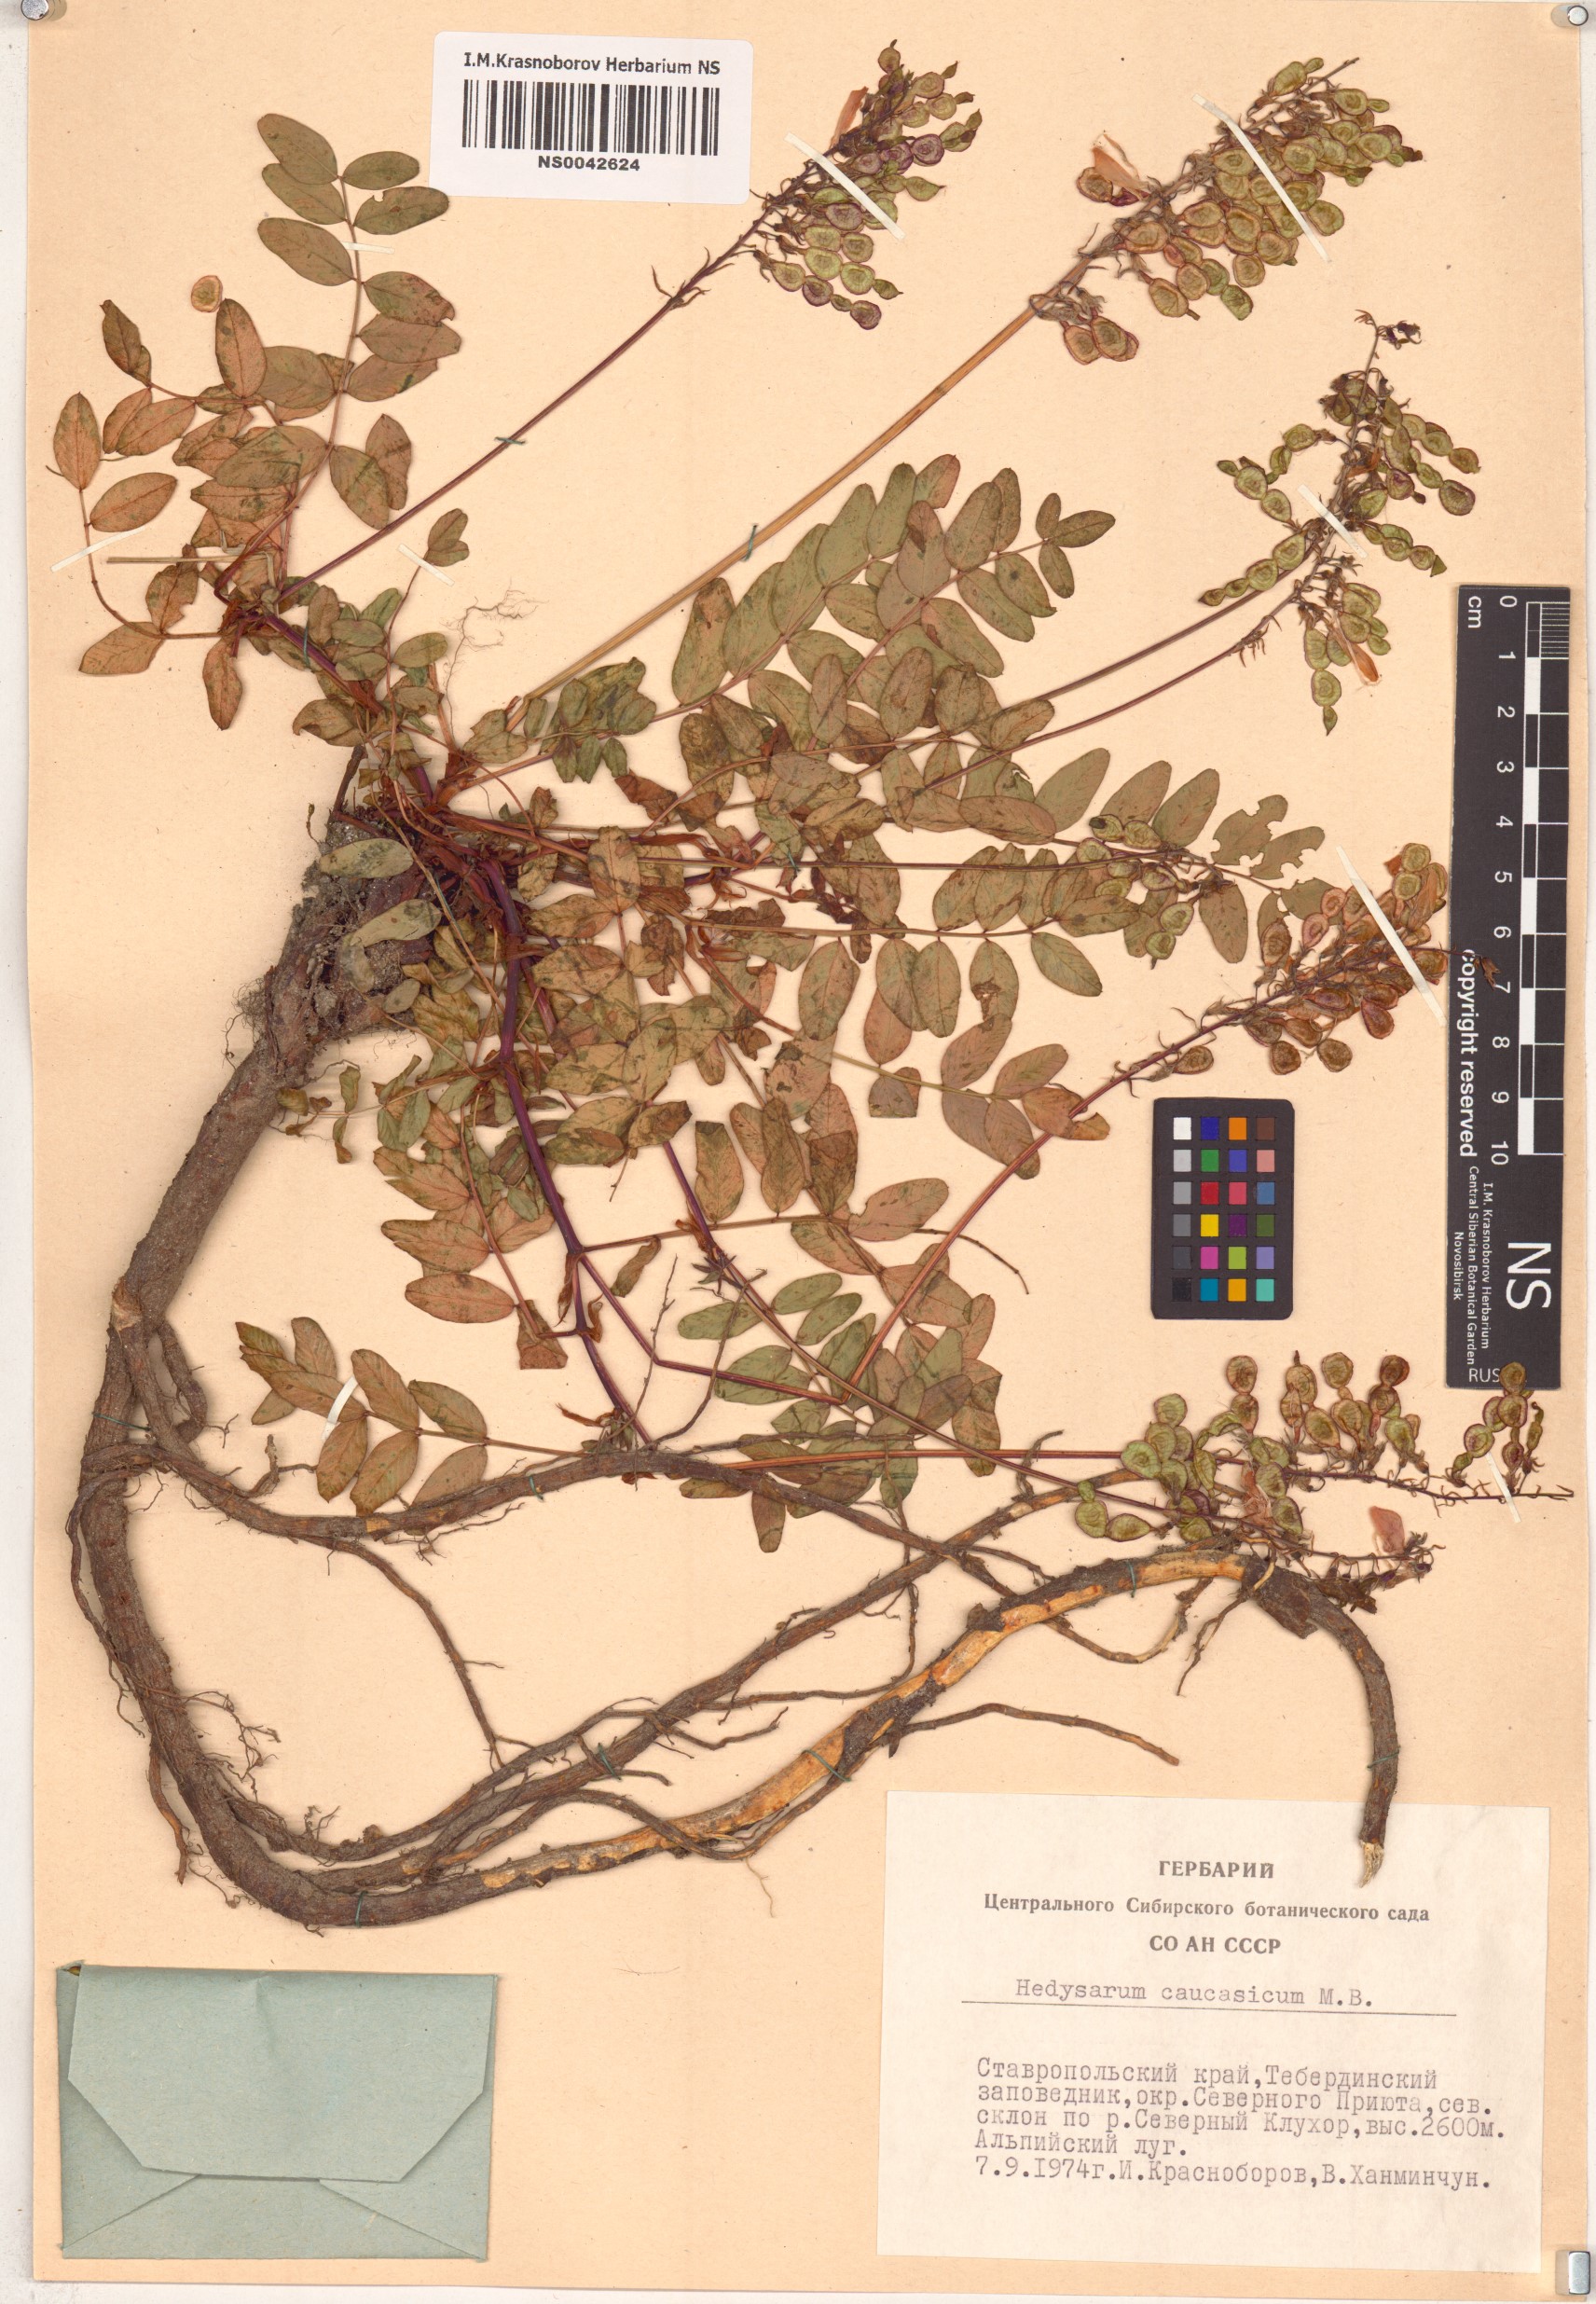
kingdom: Plantae
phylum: Tracheophyta
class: Magnoliopsida
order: Fabales
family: Fabaceae
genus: Hedysarum
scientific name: Hedysarum caucasicum
